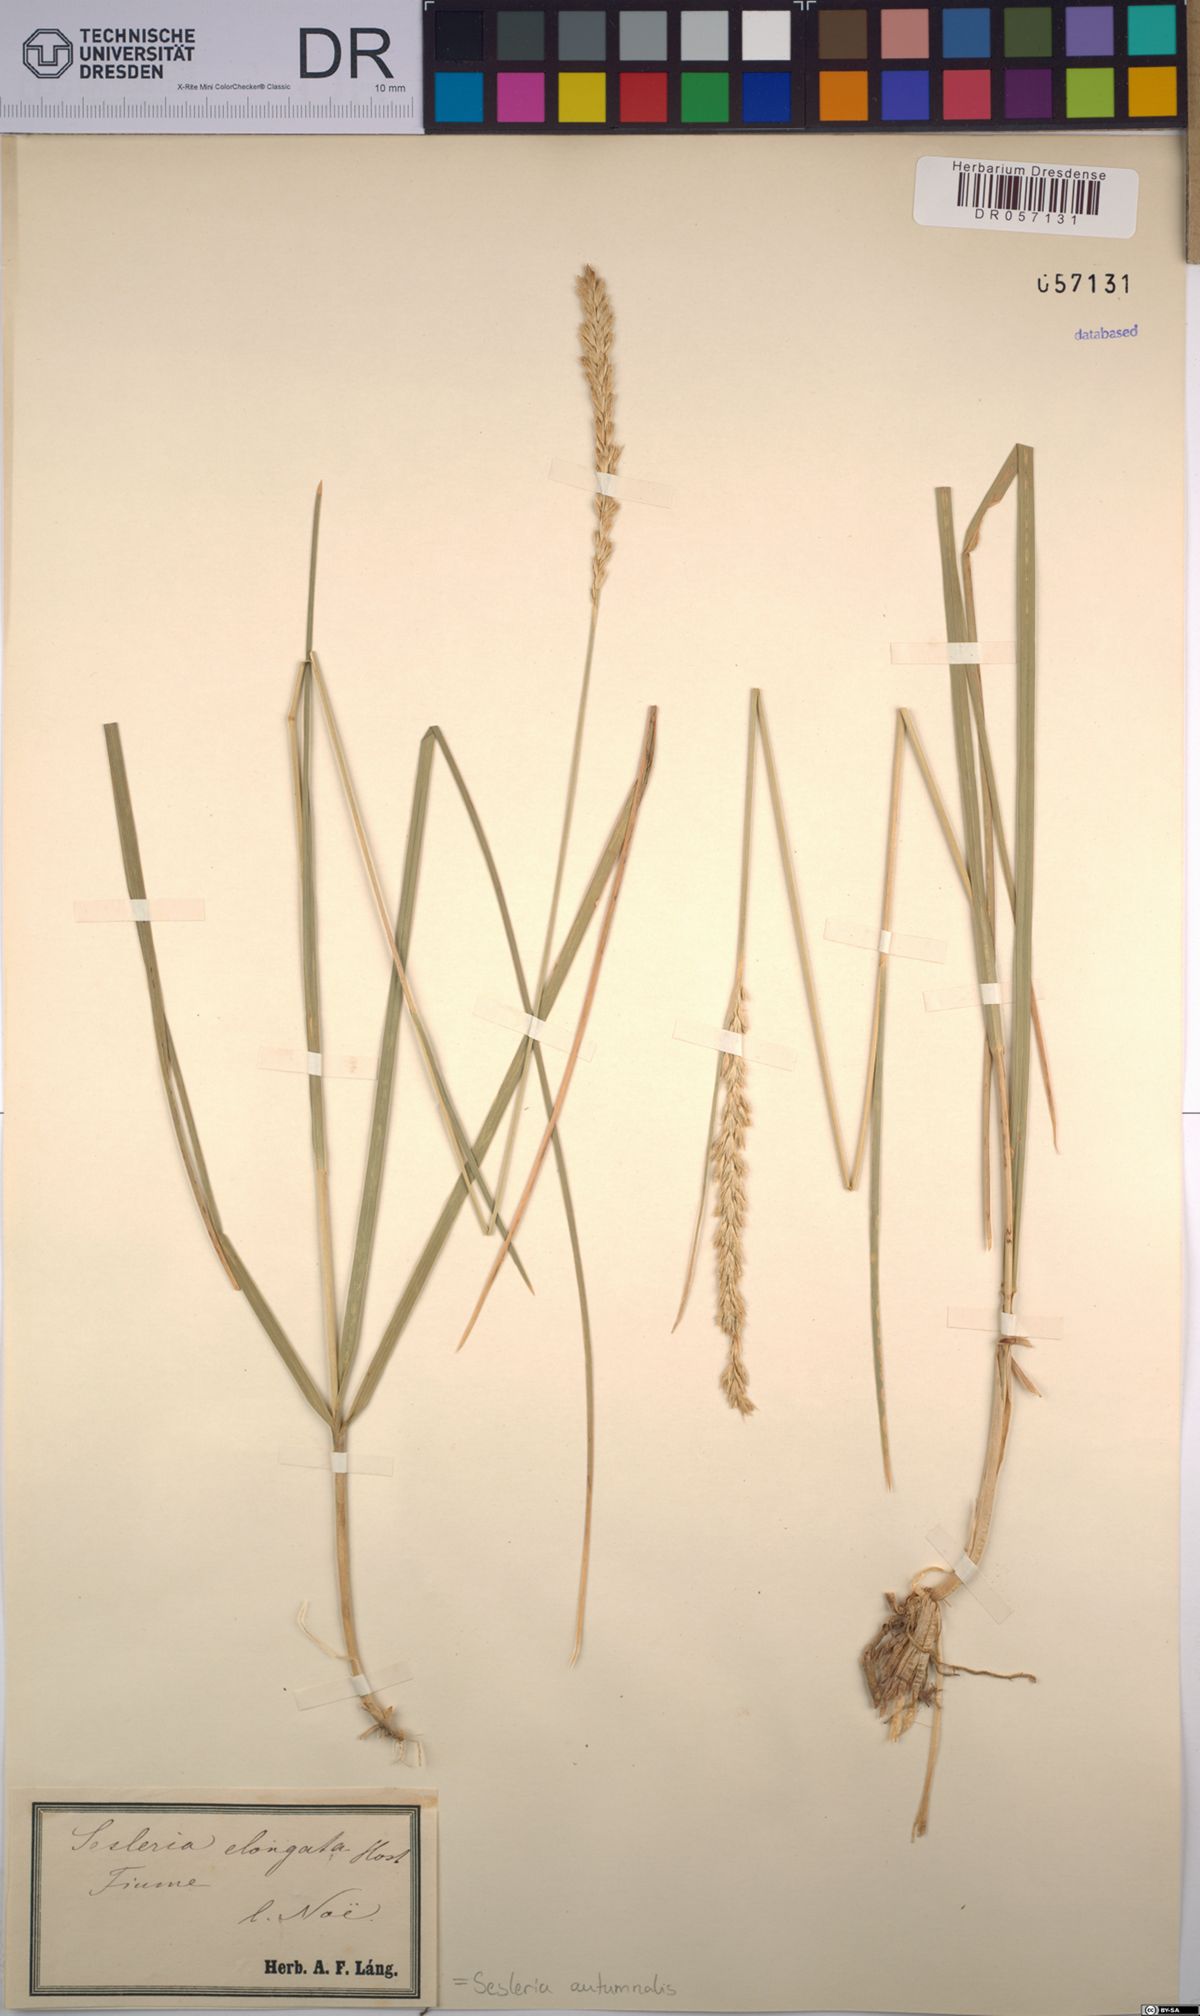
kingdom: Plantae
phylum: Tracheophyta
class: Liliopsida
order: Poales
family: Poaceae
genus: Sesleria
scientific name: Sesleria autumnalis
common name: Autumn moor grass
